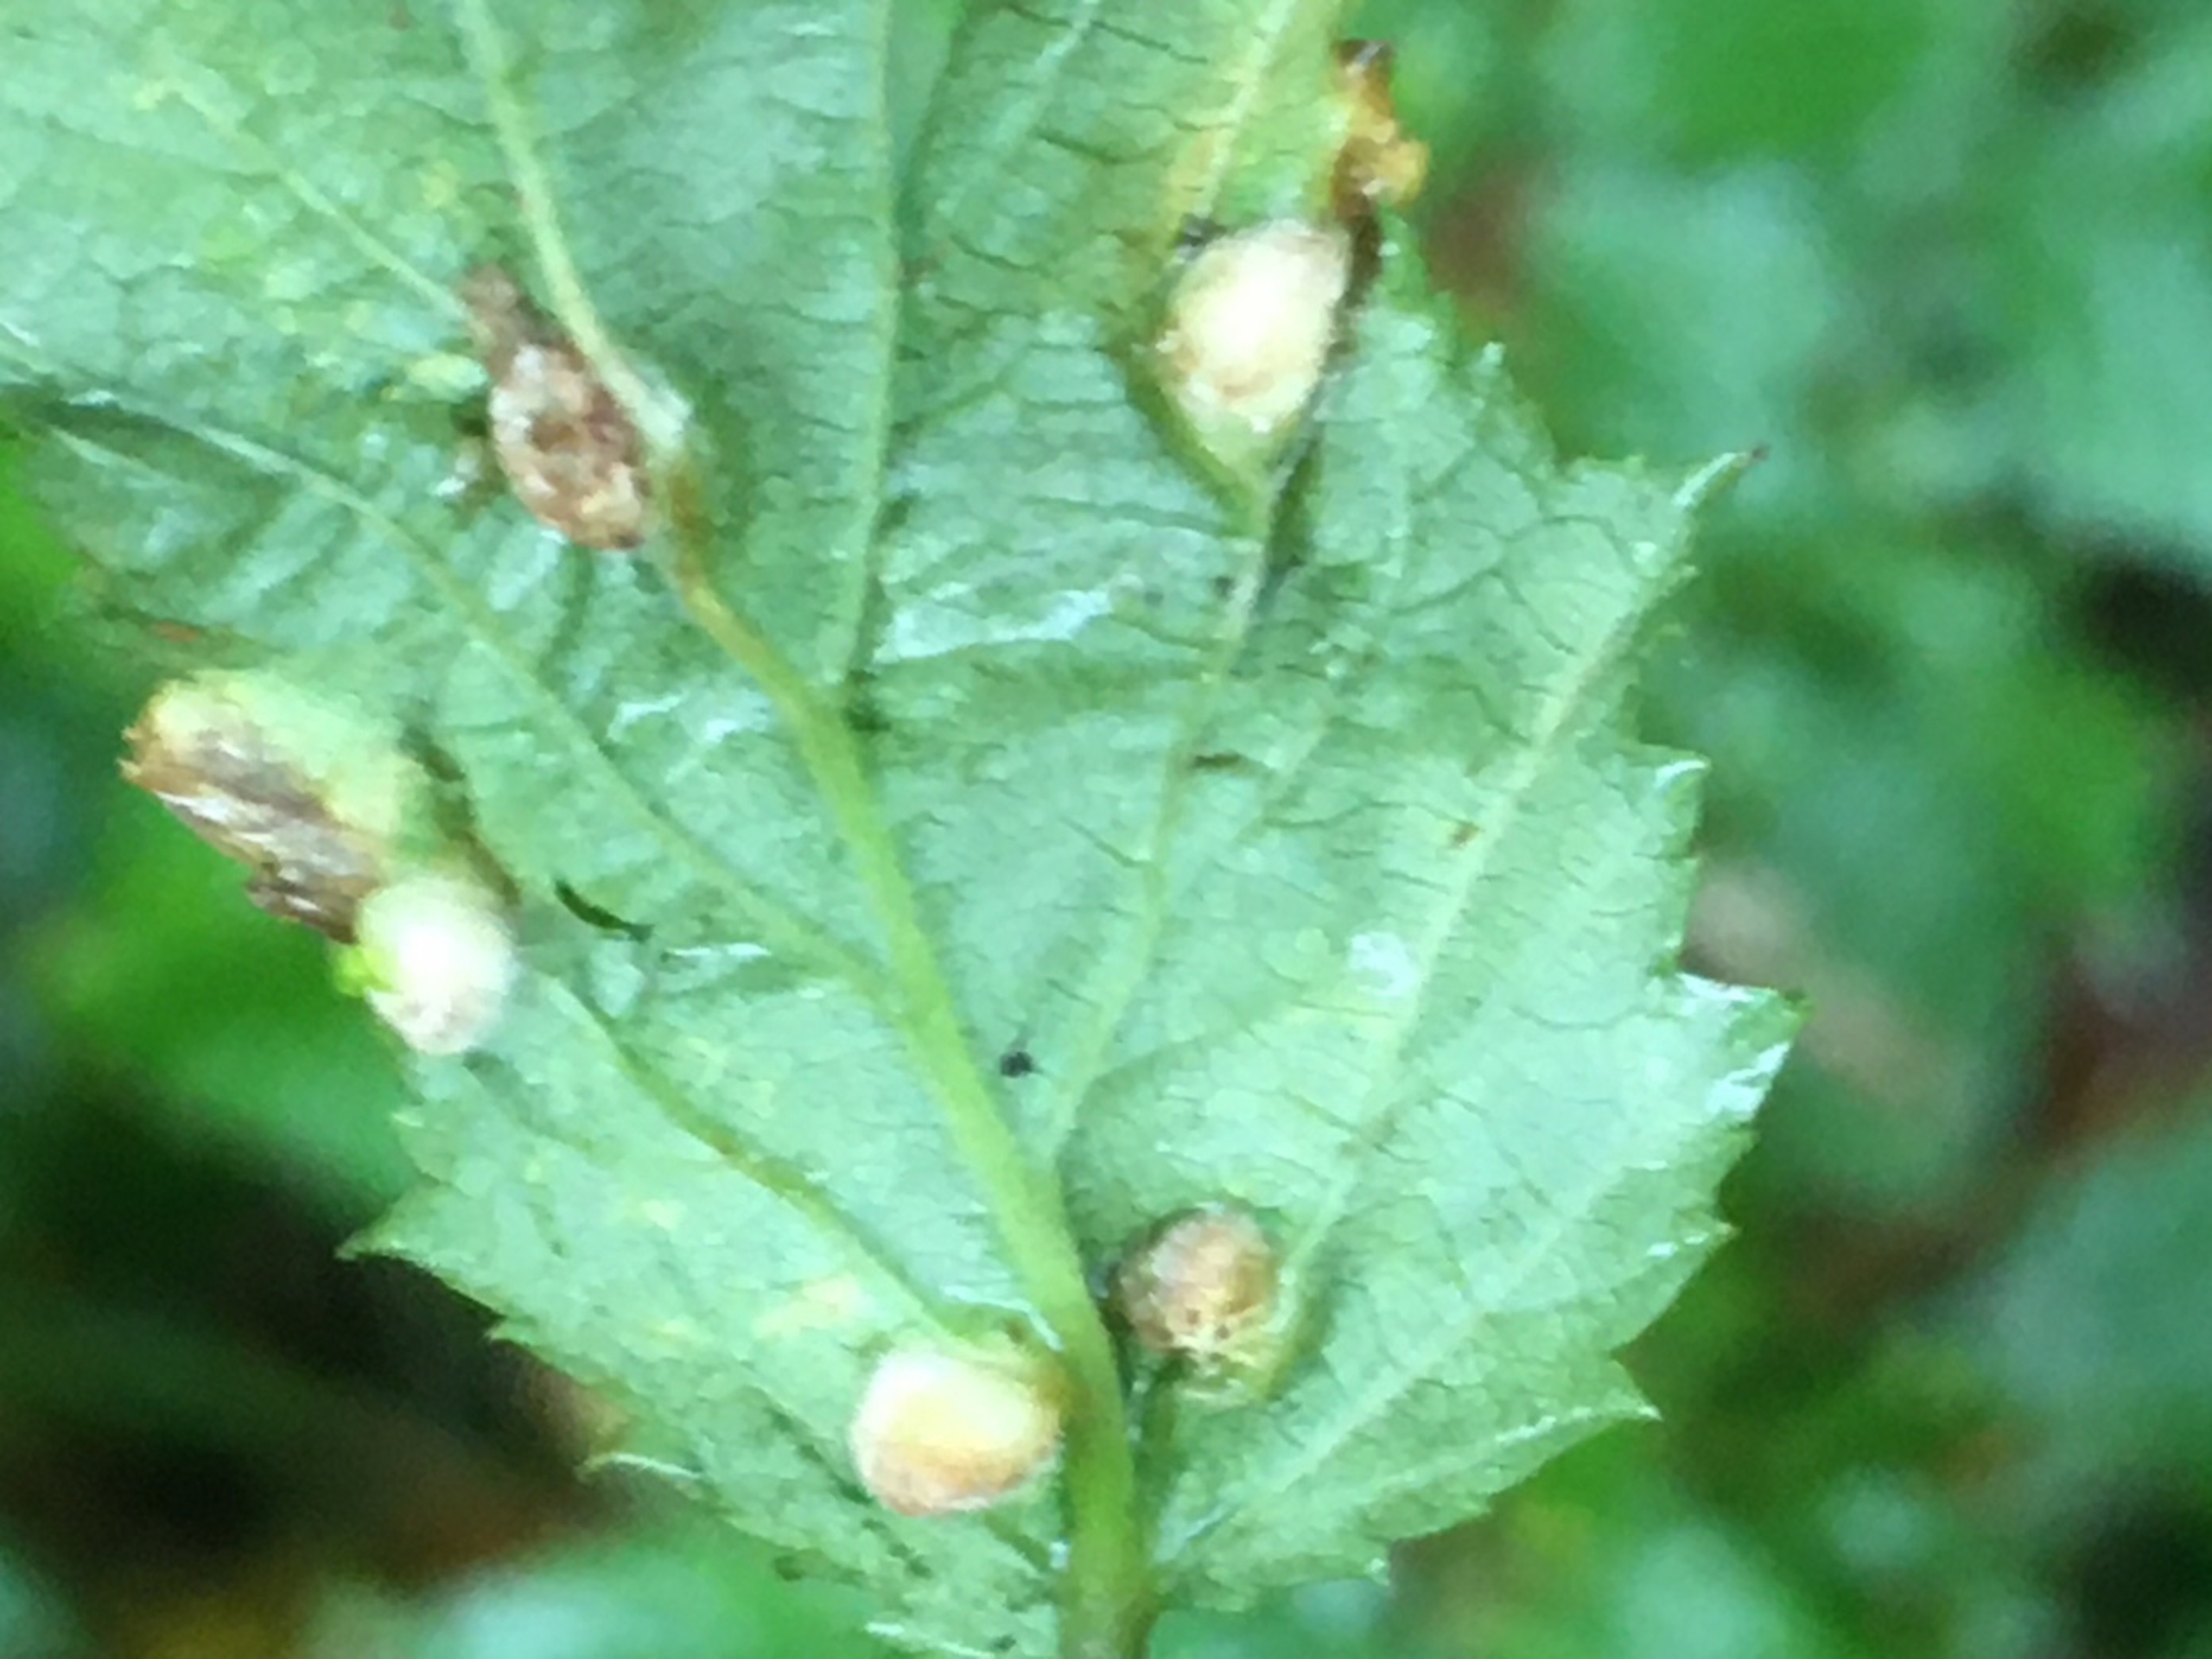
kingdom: Animalia
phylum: Arthropoda
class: Insecta
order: Diptera
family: Cecidomyiidae
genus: Dasineura
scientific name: Dasineura ulmaria
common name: Mjødurtgalmyg
